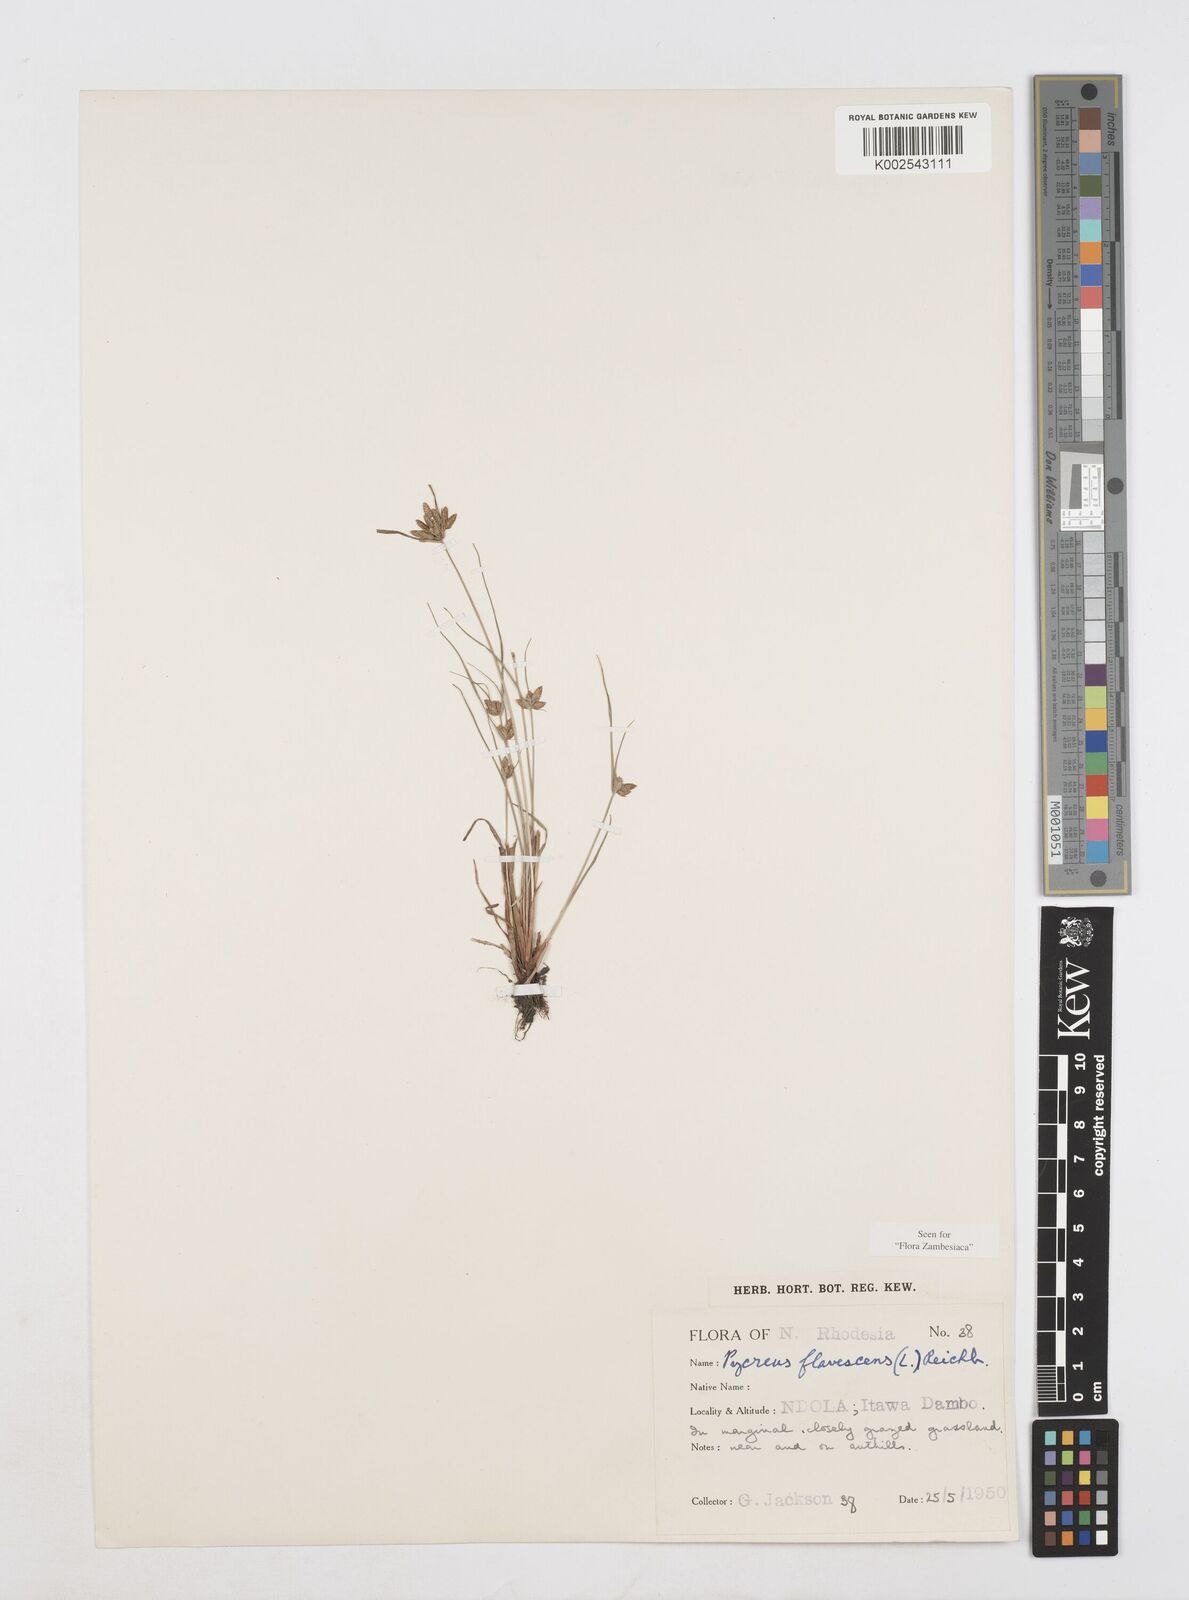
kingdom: Plantae
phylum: Tracheophyta
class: Liliopsida
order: Poales
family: Cyperaceae
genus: Cyperus
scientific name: Cyperus flavescens
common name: Yellow galingale
